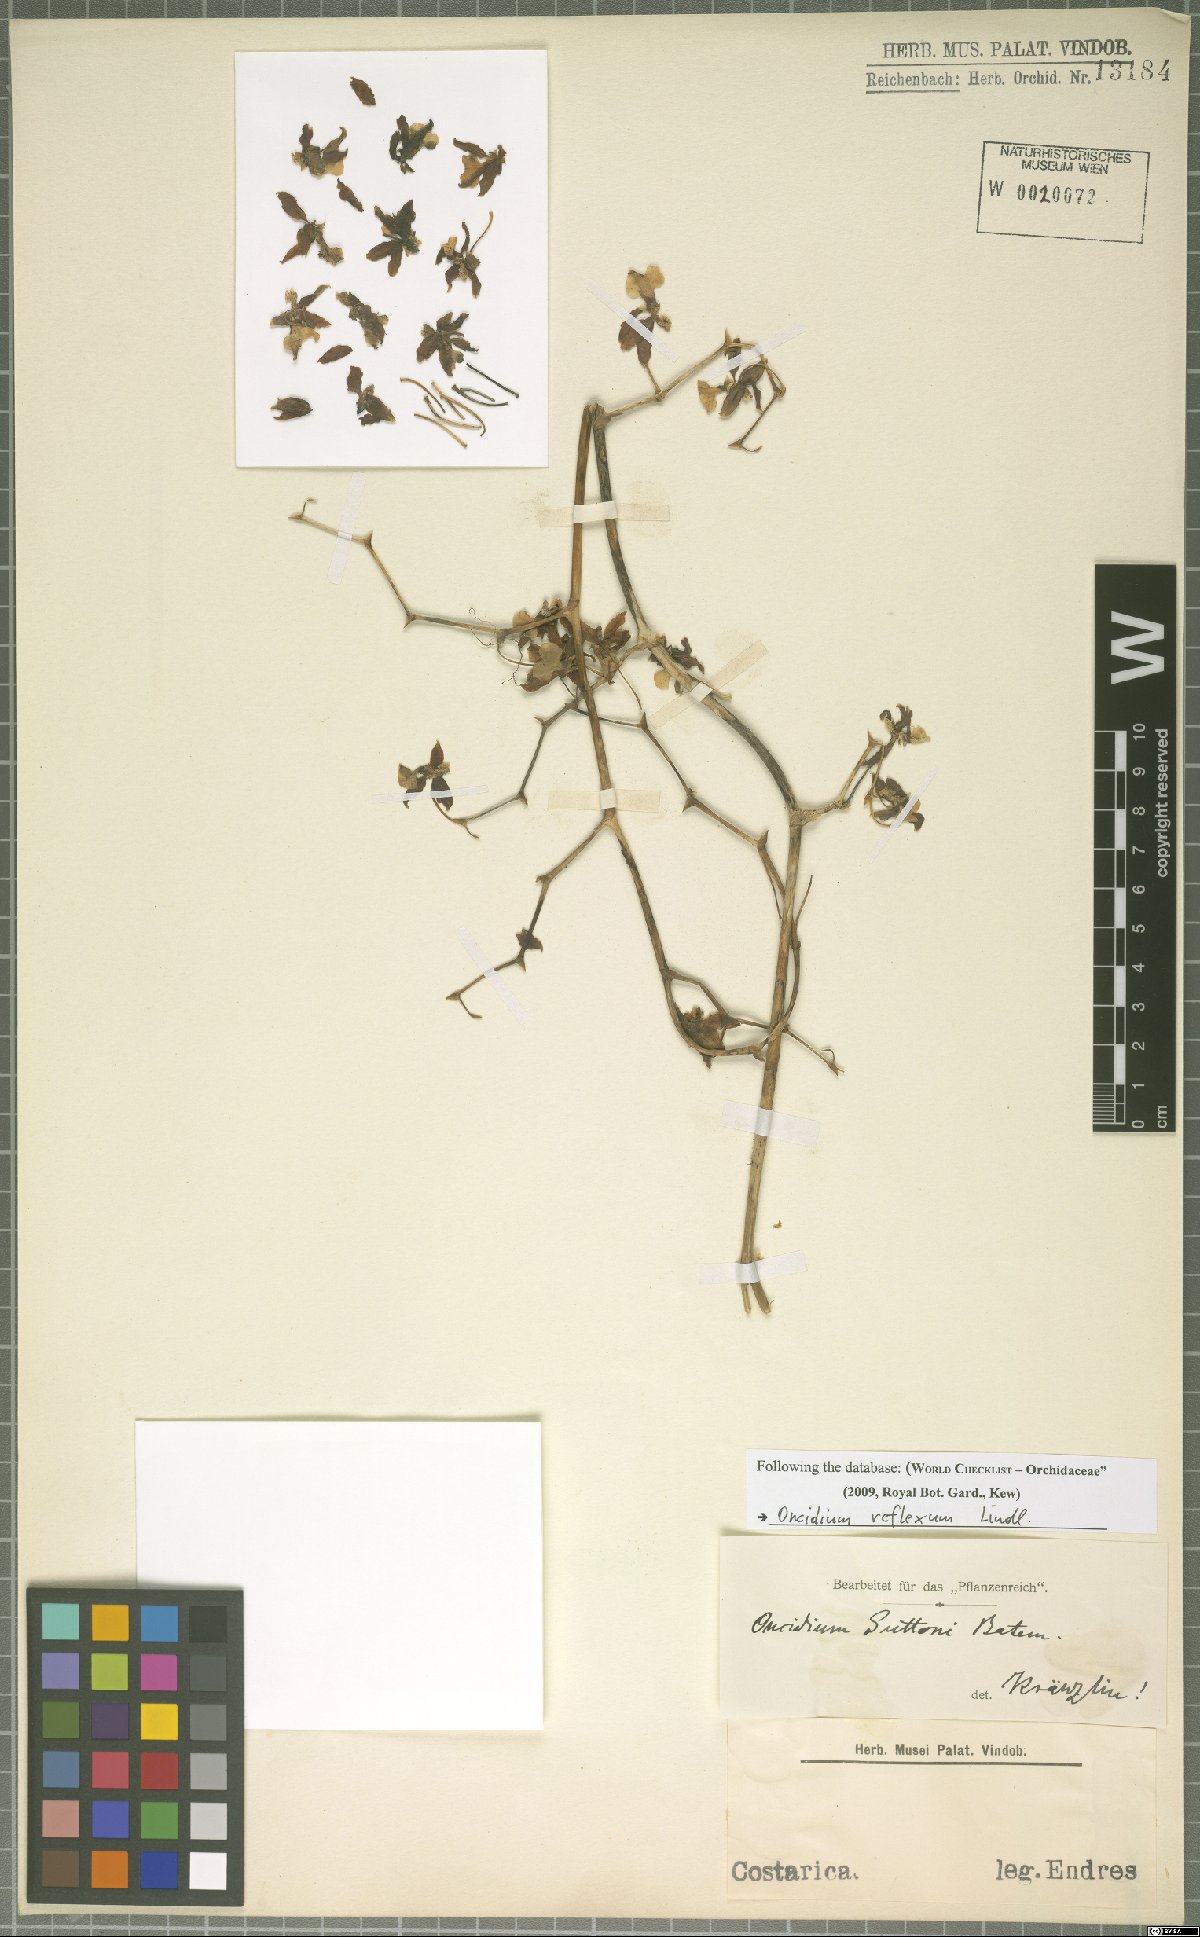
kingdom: Plantae
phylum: Tracheophyta
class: Liliopsida
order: Asparagales
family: Orchidaceae
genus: Oncidium
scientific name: Oncidium reflexum
